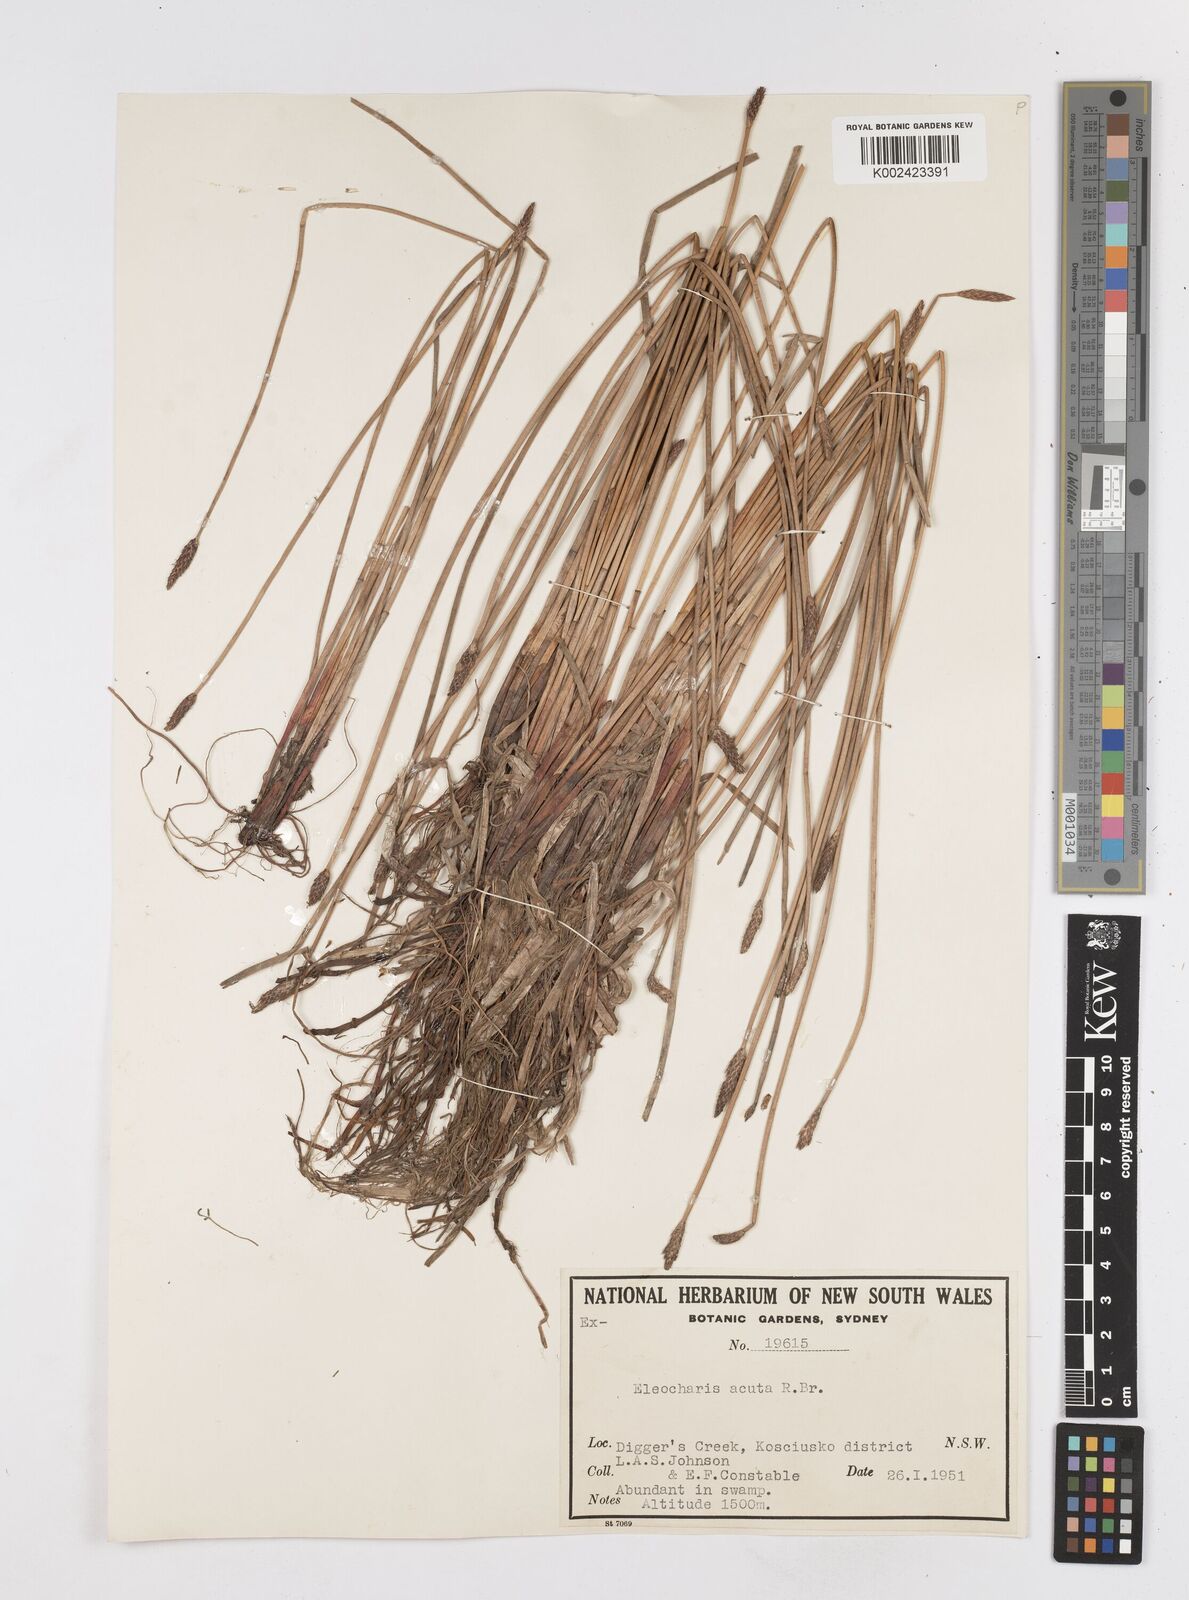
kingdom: Plantae
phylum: Tracheophyta
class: Liliopsida
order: Poales
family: Cyperaceae
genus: Eleocharis
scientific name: Eleocharis acuta
